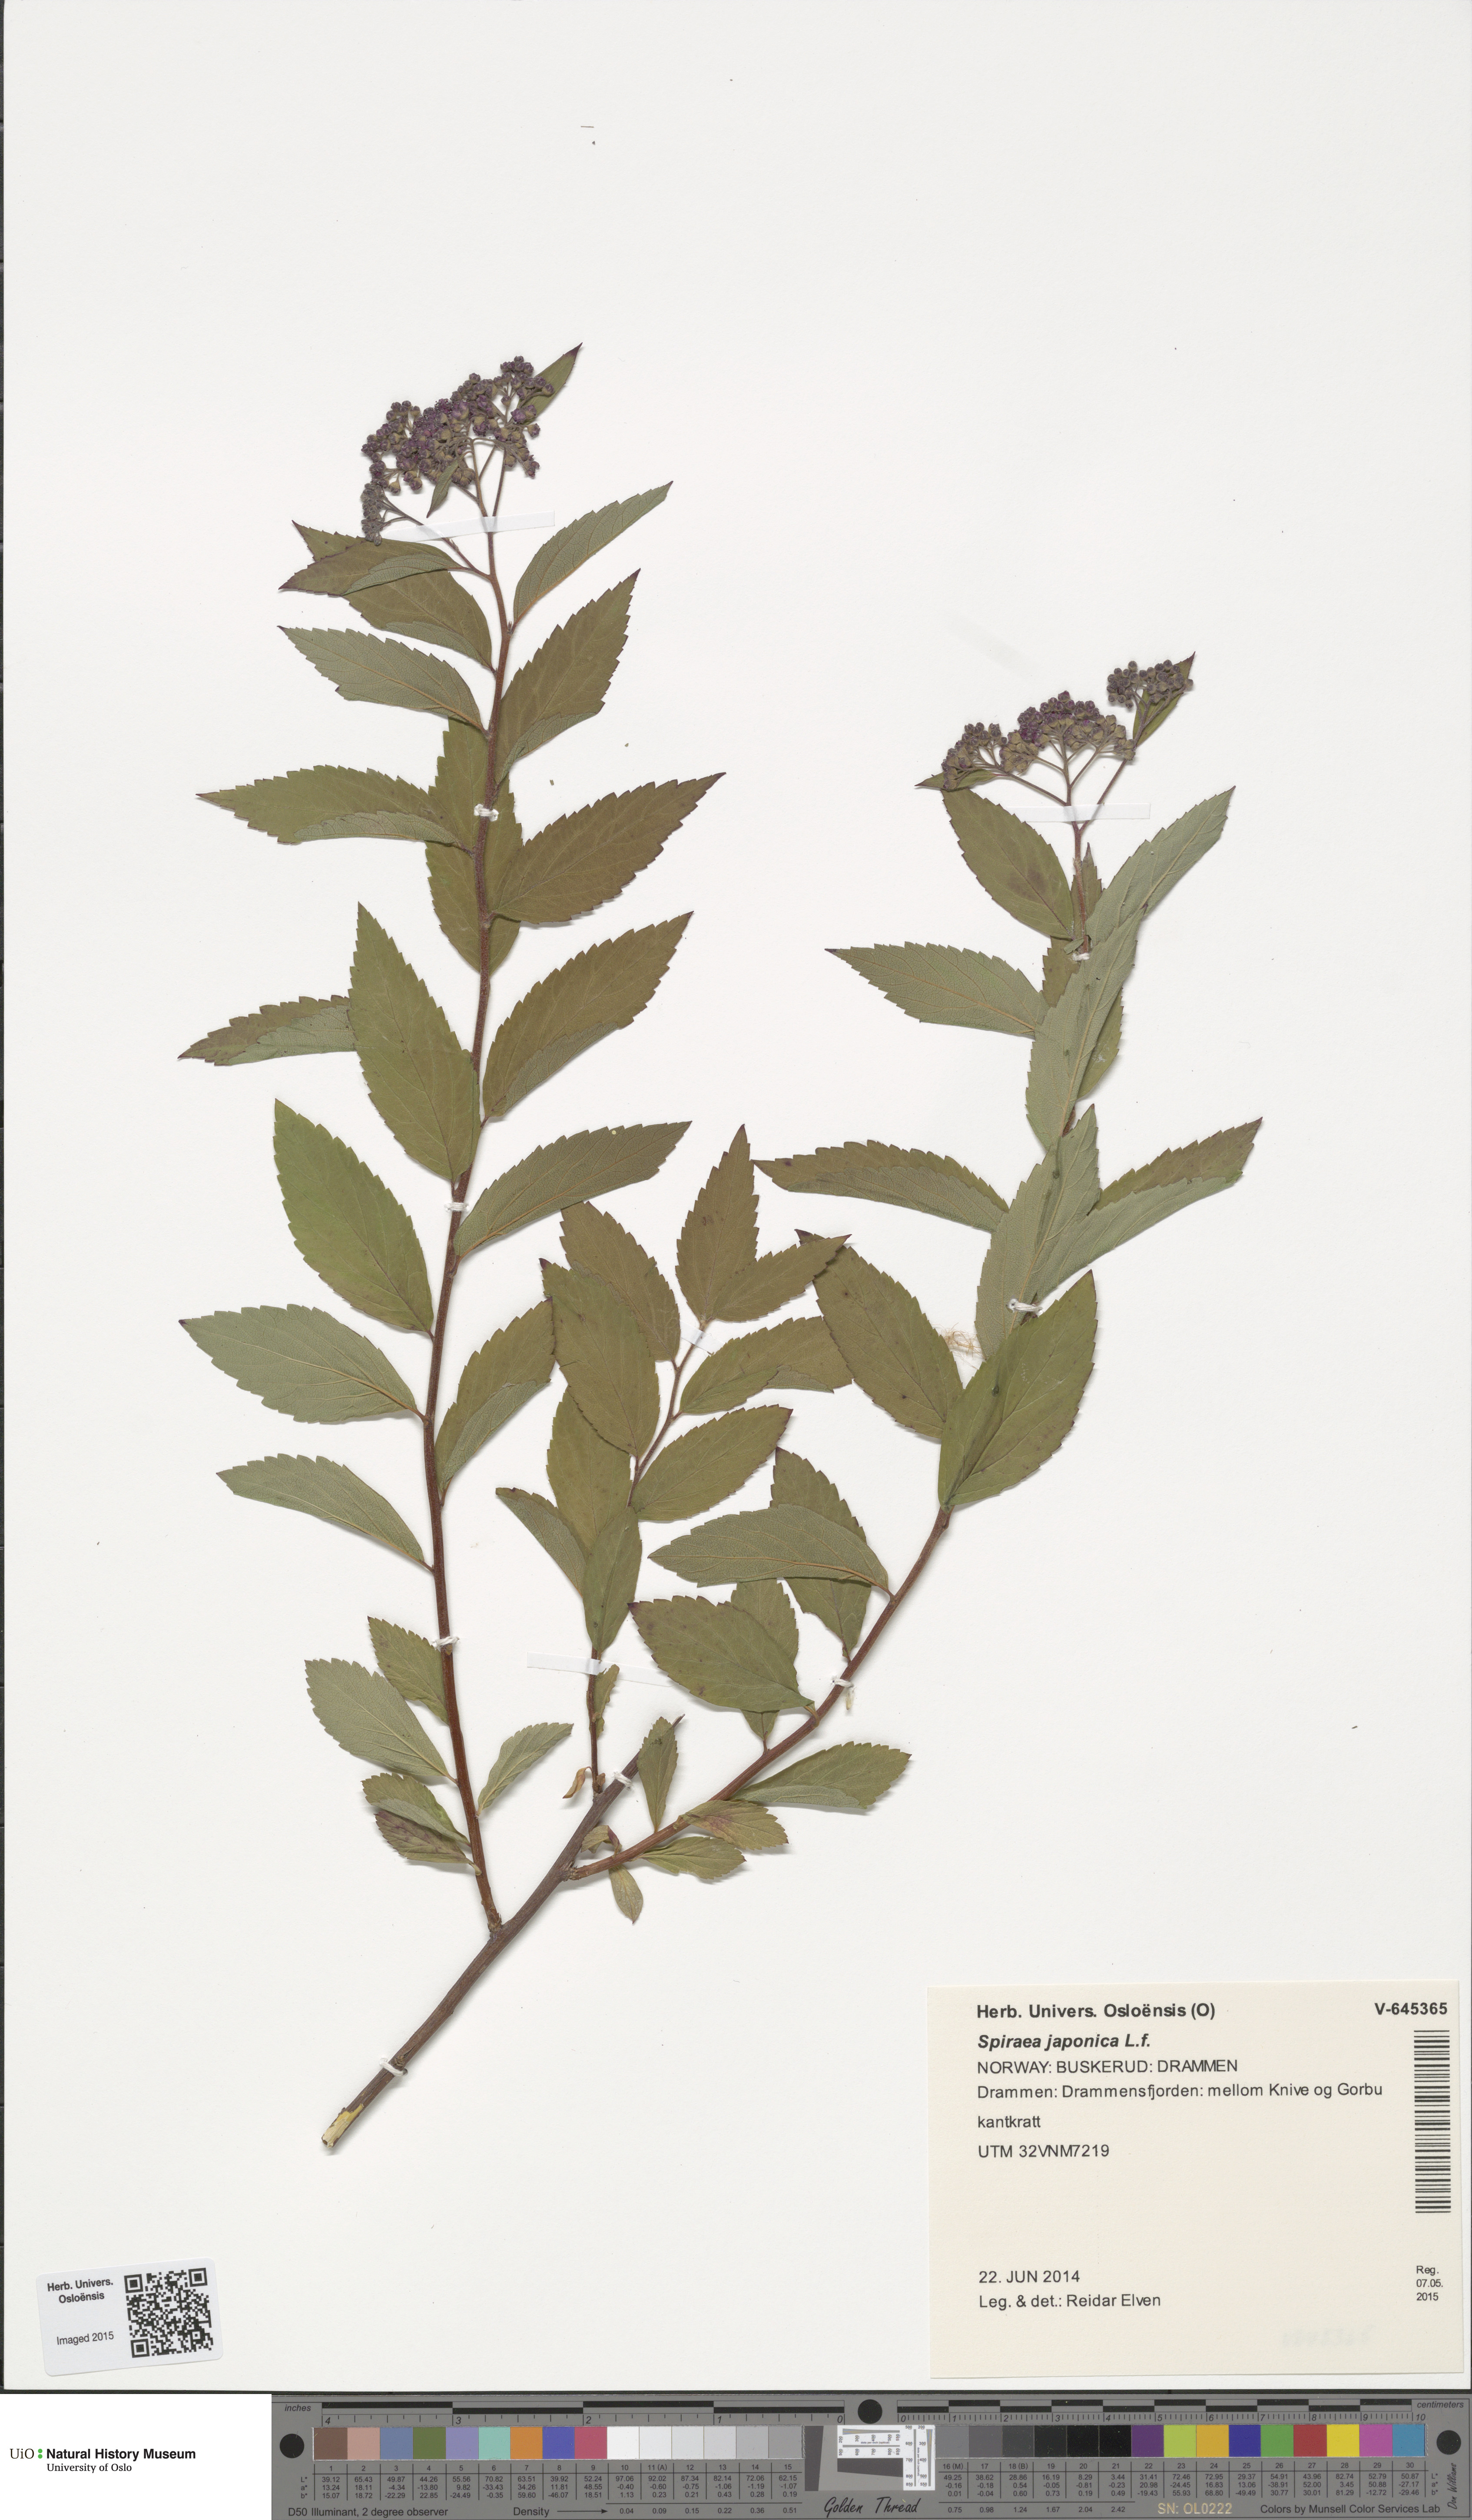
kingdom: Plantae
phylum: Tracheophyta
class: Magnoliopsida
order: Rosales
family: Rosaceae
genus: Spiraea
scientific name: Spiraea japonica
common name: Japanese spiraea
